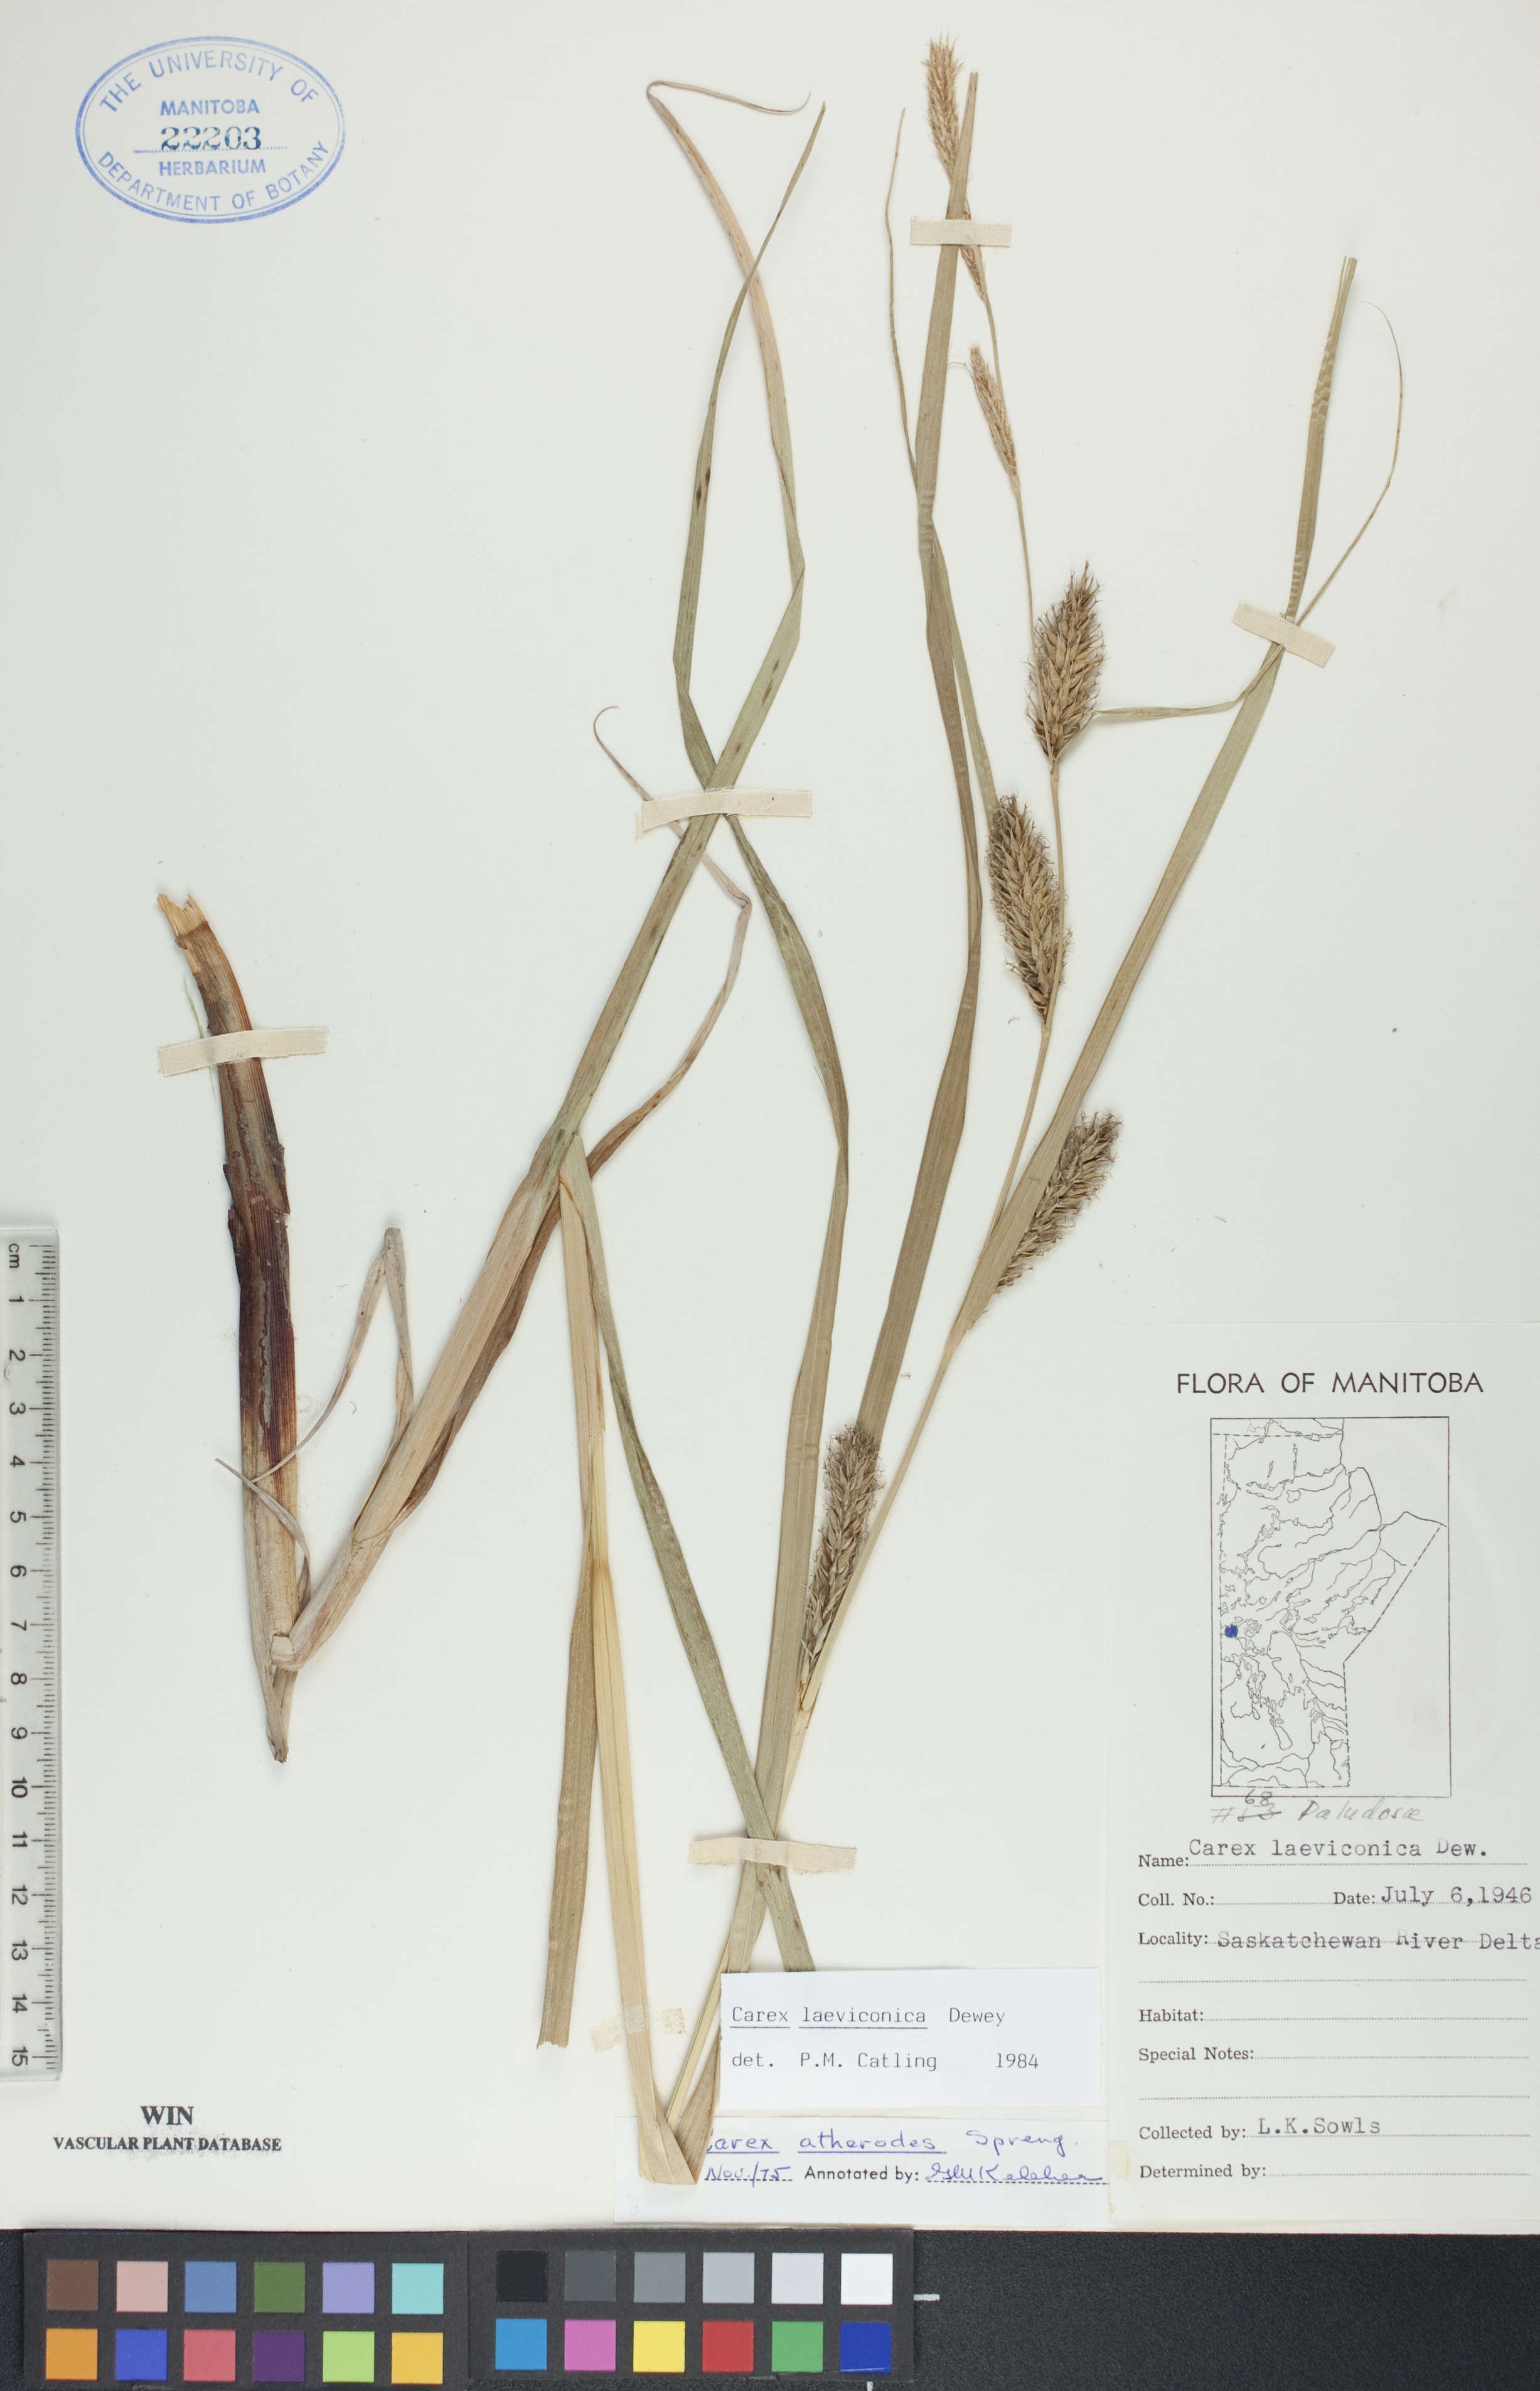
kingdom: Plantae
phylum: Tracheophyta
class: Liliopsida
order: Poales
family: Cyperaceae
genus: Carex
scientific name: Carex laeviconica
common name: Plains slough sedge
